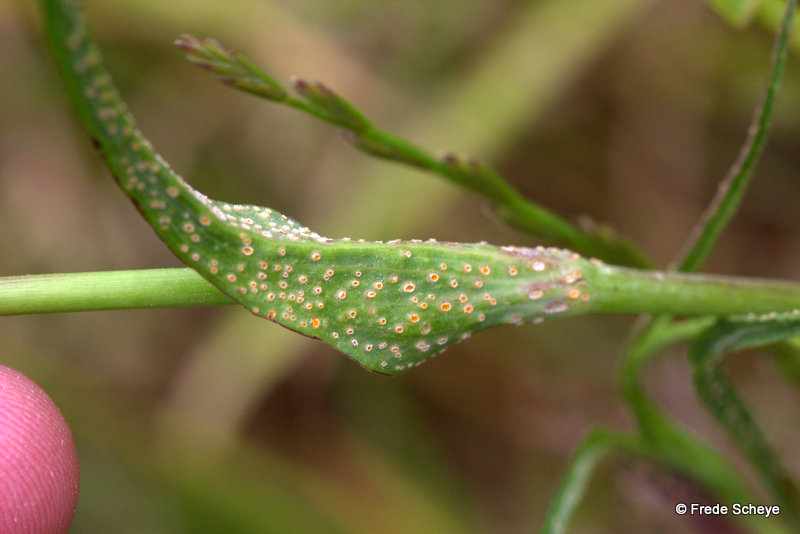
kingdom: Fungi
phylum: Basidiomycota
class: Pucciniomycetes
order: Pucciniales
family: Pucciniaceae
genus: Puccinia
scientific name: Puccinia hysterium
